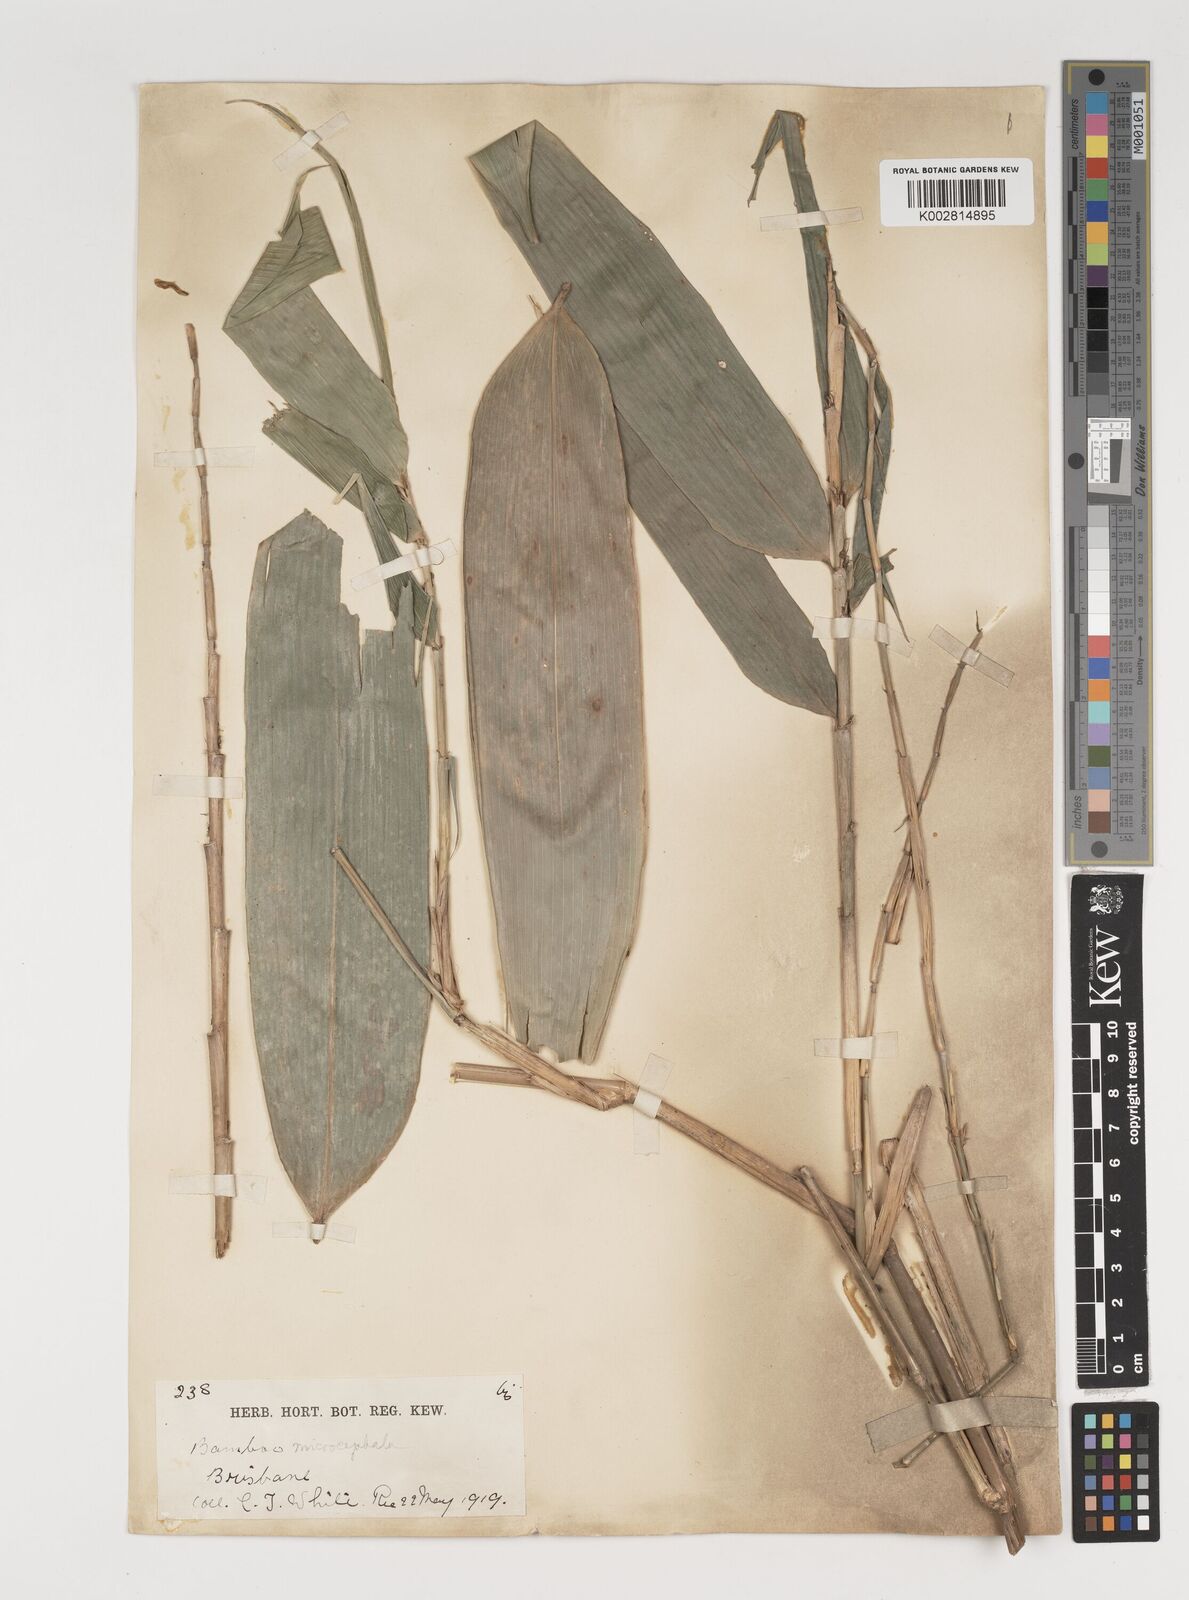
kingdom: Plantae
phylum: Tracheophyta
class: Liliopsida
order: Poales
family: Poaceae
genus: Fimbribambusa
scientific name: Fimbribambusa microcephala
